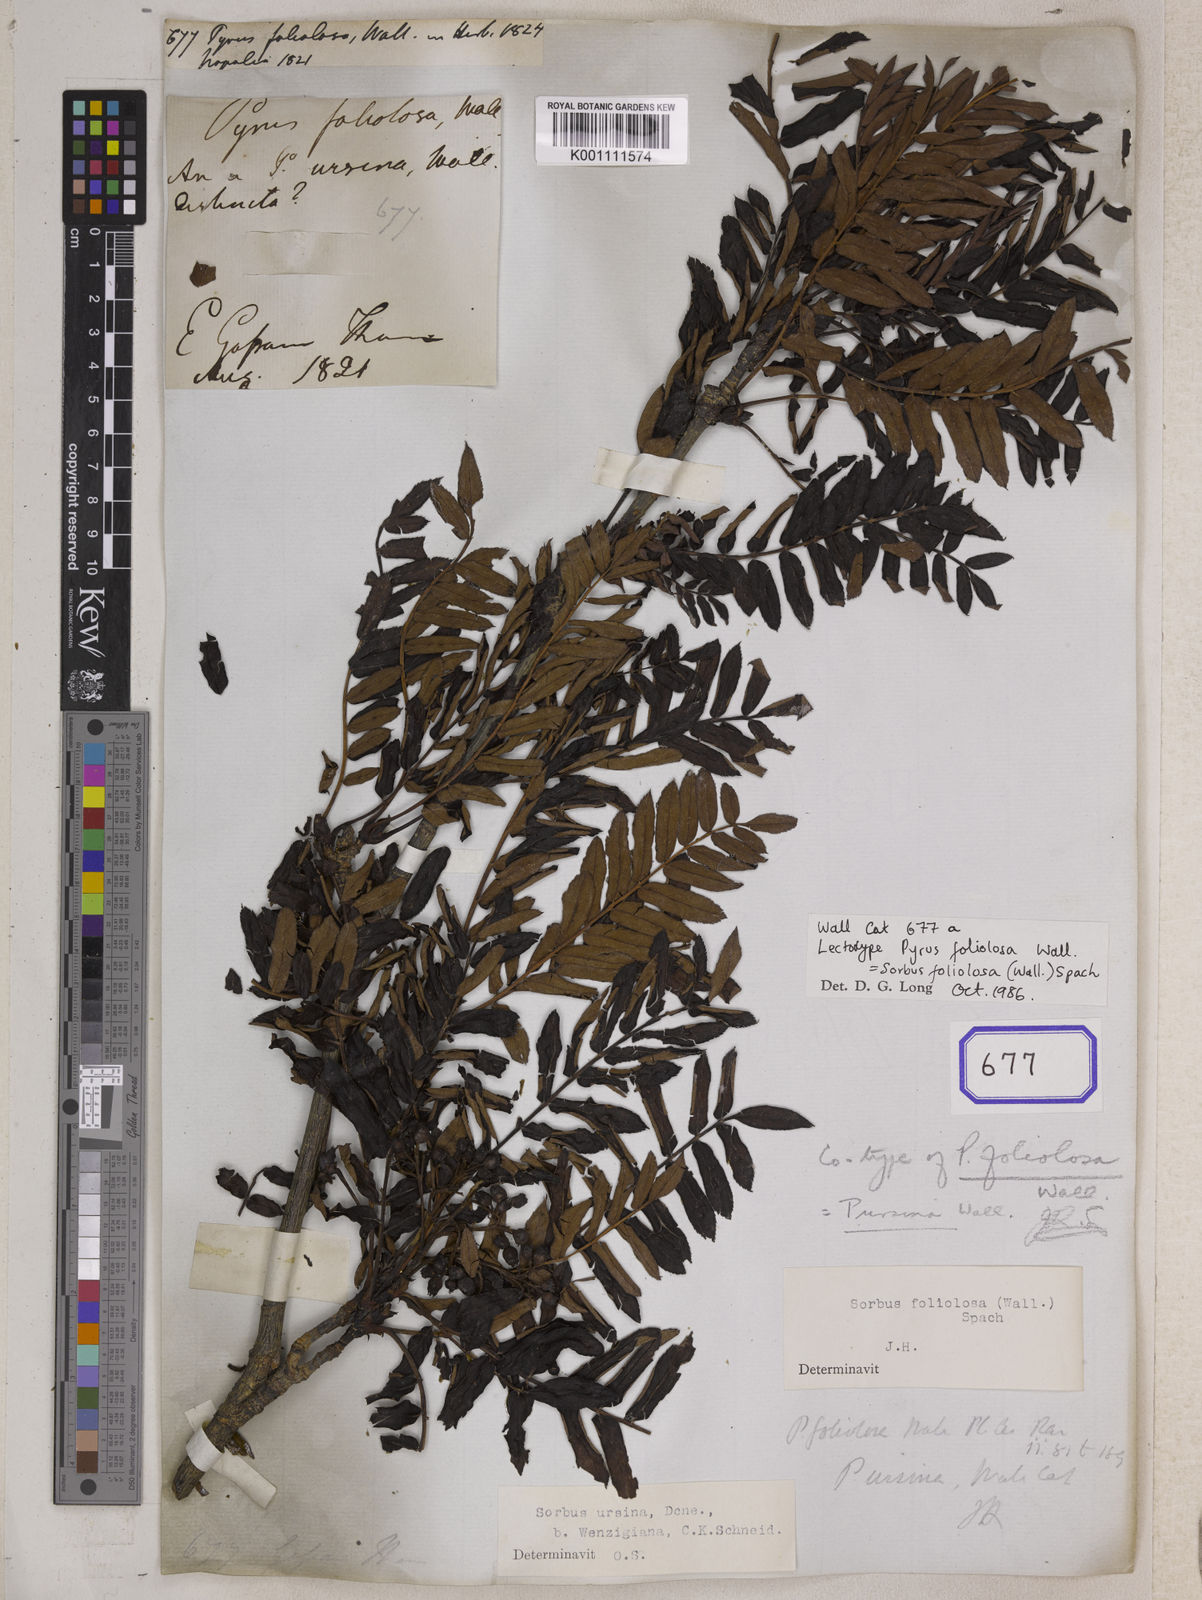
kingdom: Plantae
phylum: Tracheophyta
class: Magnoliopsida
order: Rosales
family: Rosaceae
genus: Sorbus
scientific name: Sorbus foliolosa
